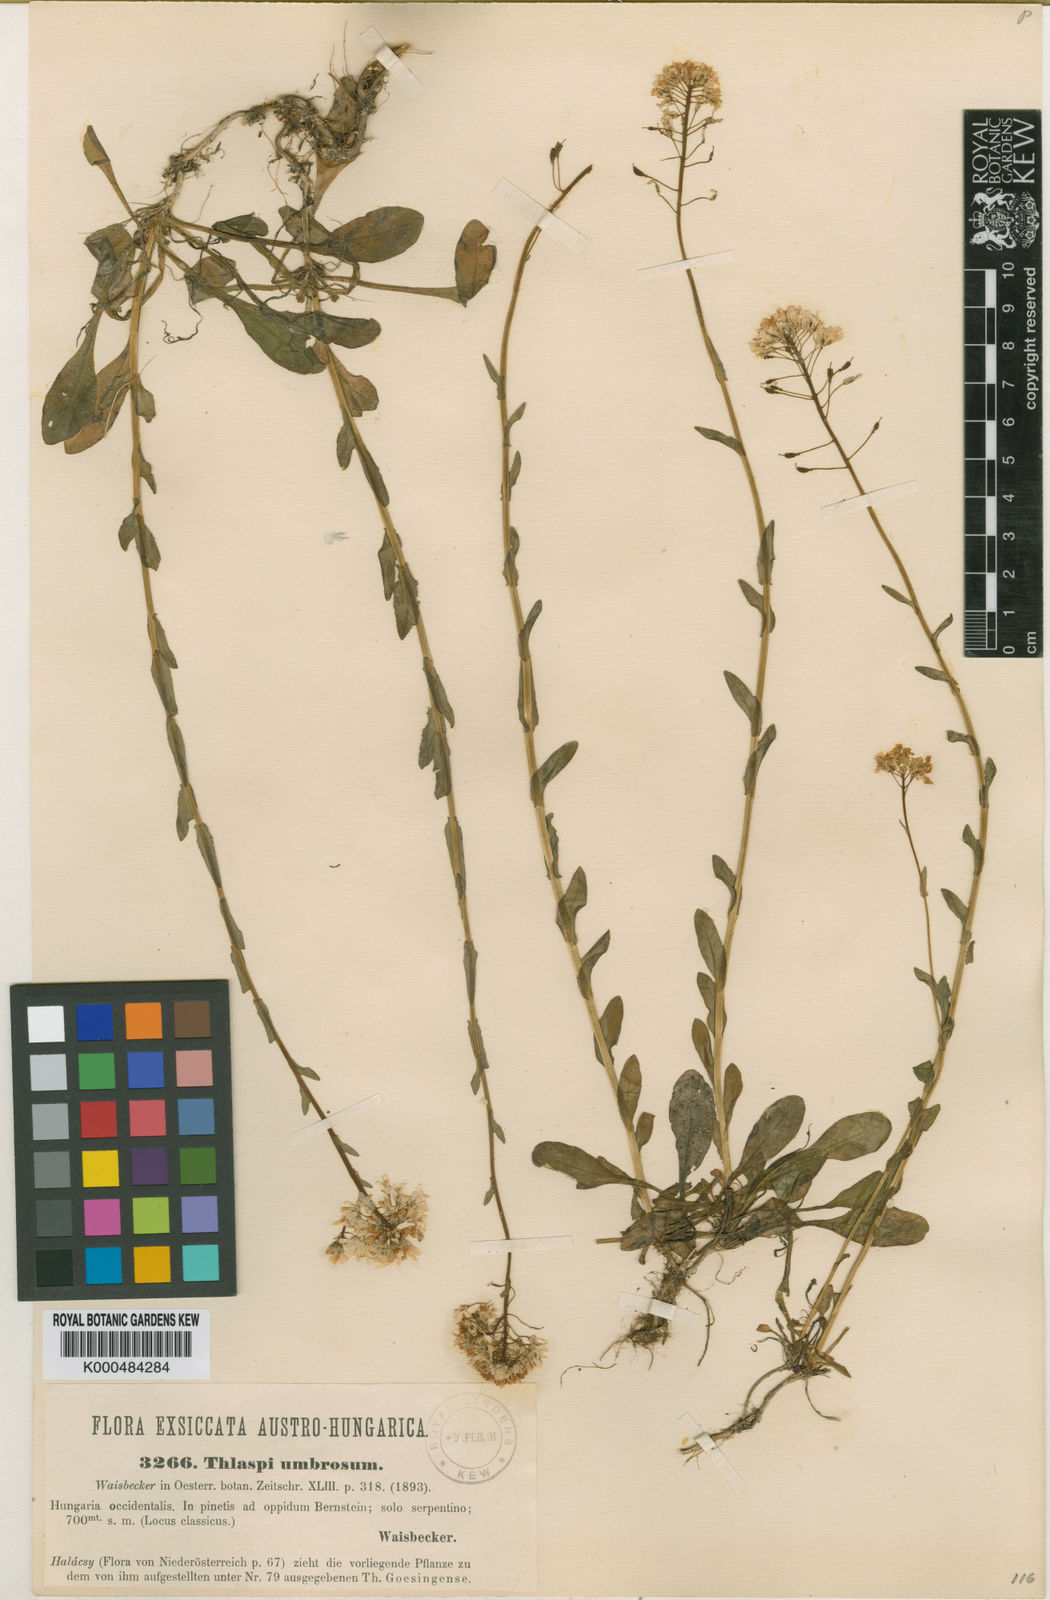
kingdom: Plantae
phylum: Tracheophyta
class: Magnoliopsida
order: Brassicales
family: Brassicaceae
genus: Noccaea
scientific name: Noccaea tymphaea
